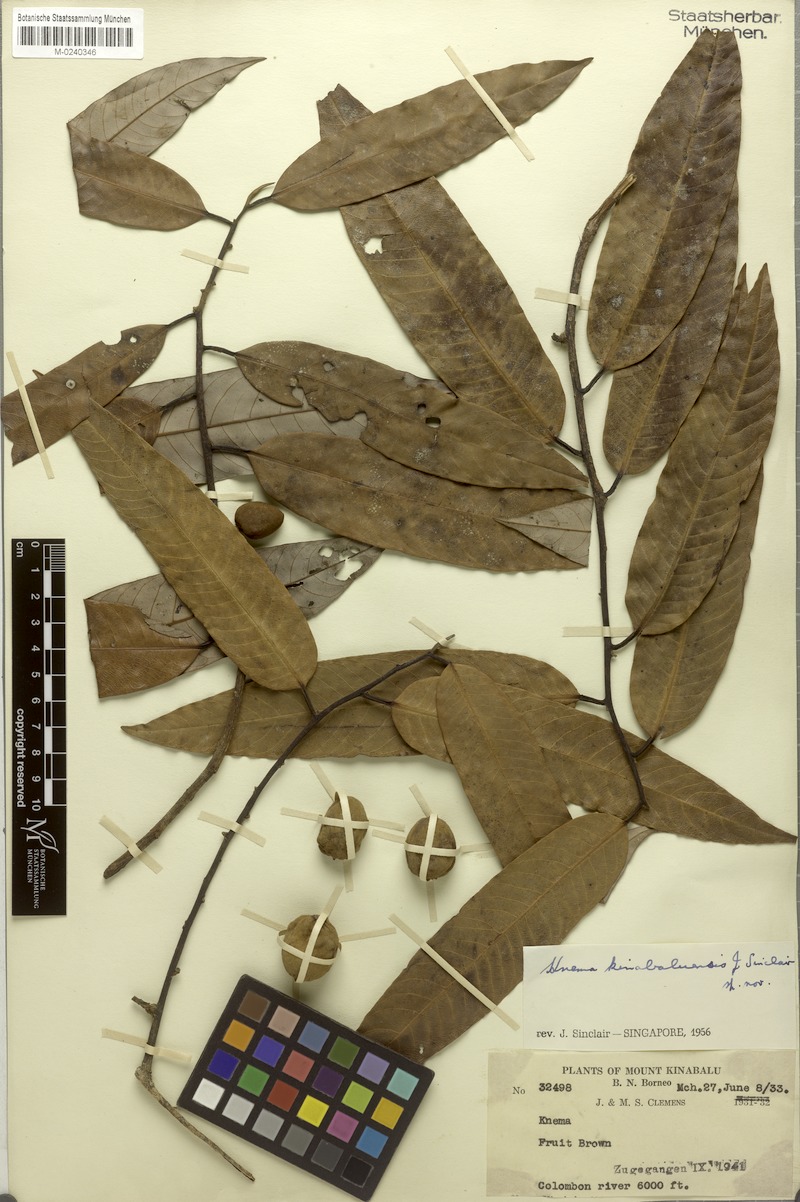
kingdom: Plantae
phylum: Tracheophyta
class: Magnoliopsida
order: Magnoliales
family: Myristicaceae
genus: Knema
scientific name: Knema kinabaluensis
